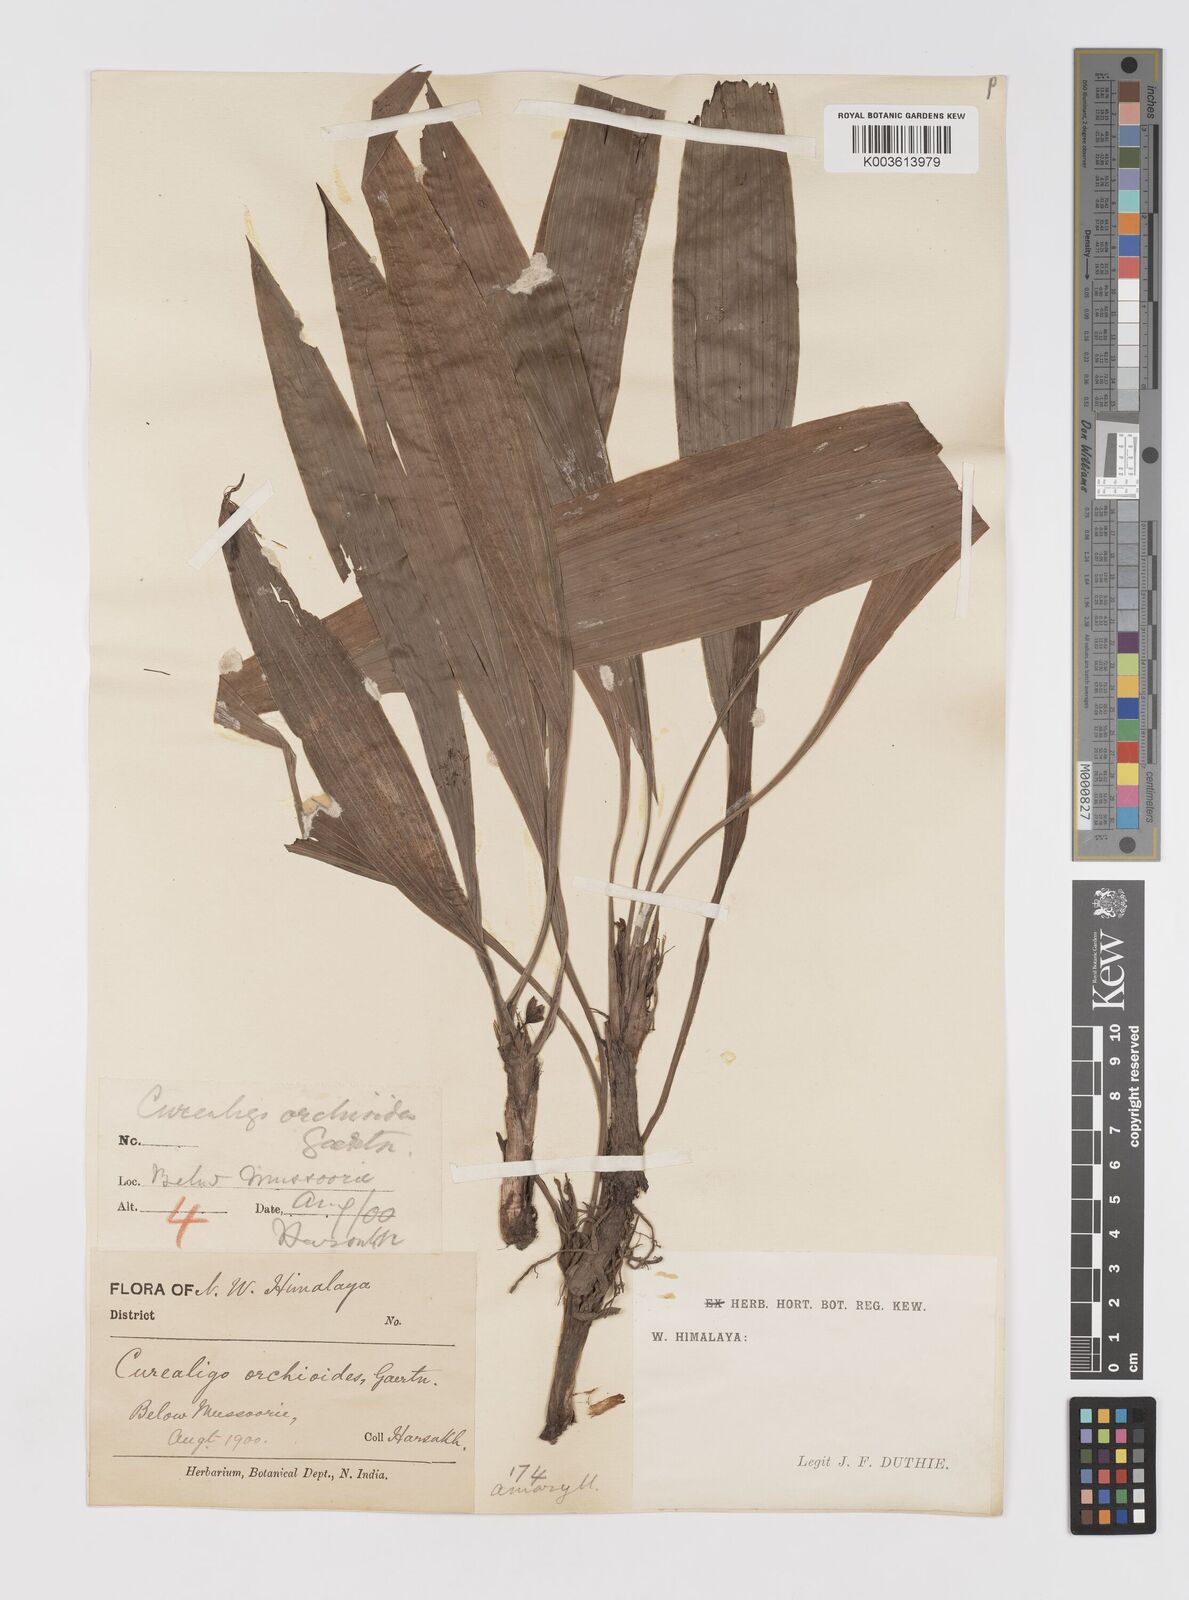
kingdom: Plantae
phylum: Tracheophyta
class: Liliopsida
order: Asparagales
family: Hypoxidaceae
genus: Curculigo
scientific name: Curculigo orchioides
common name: Golden eye-grass
